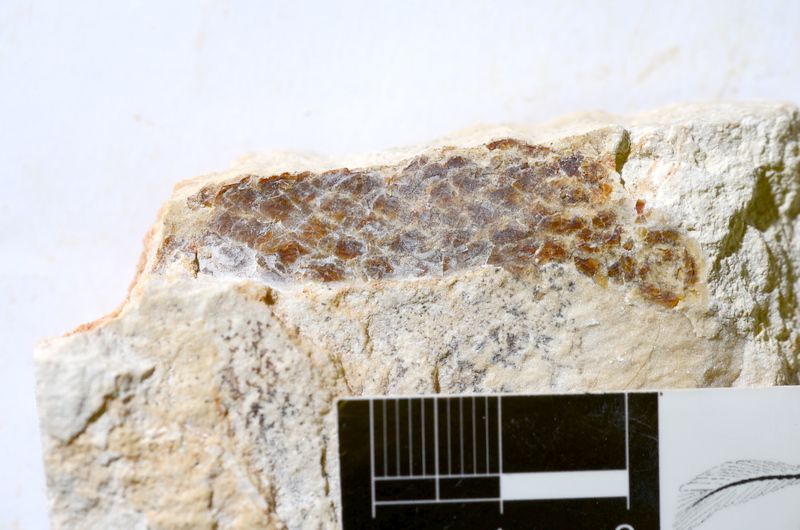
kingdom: Animalia
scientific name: Animalia
